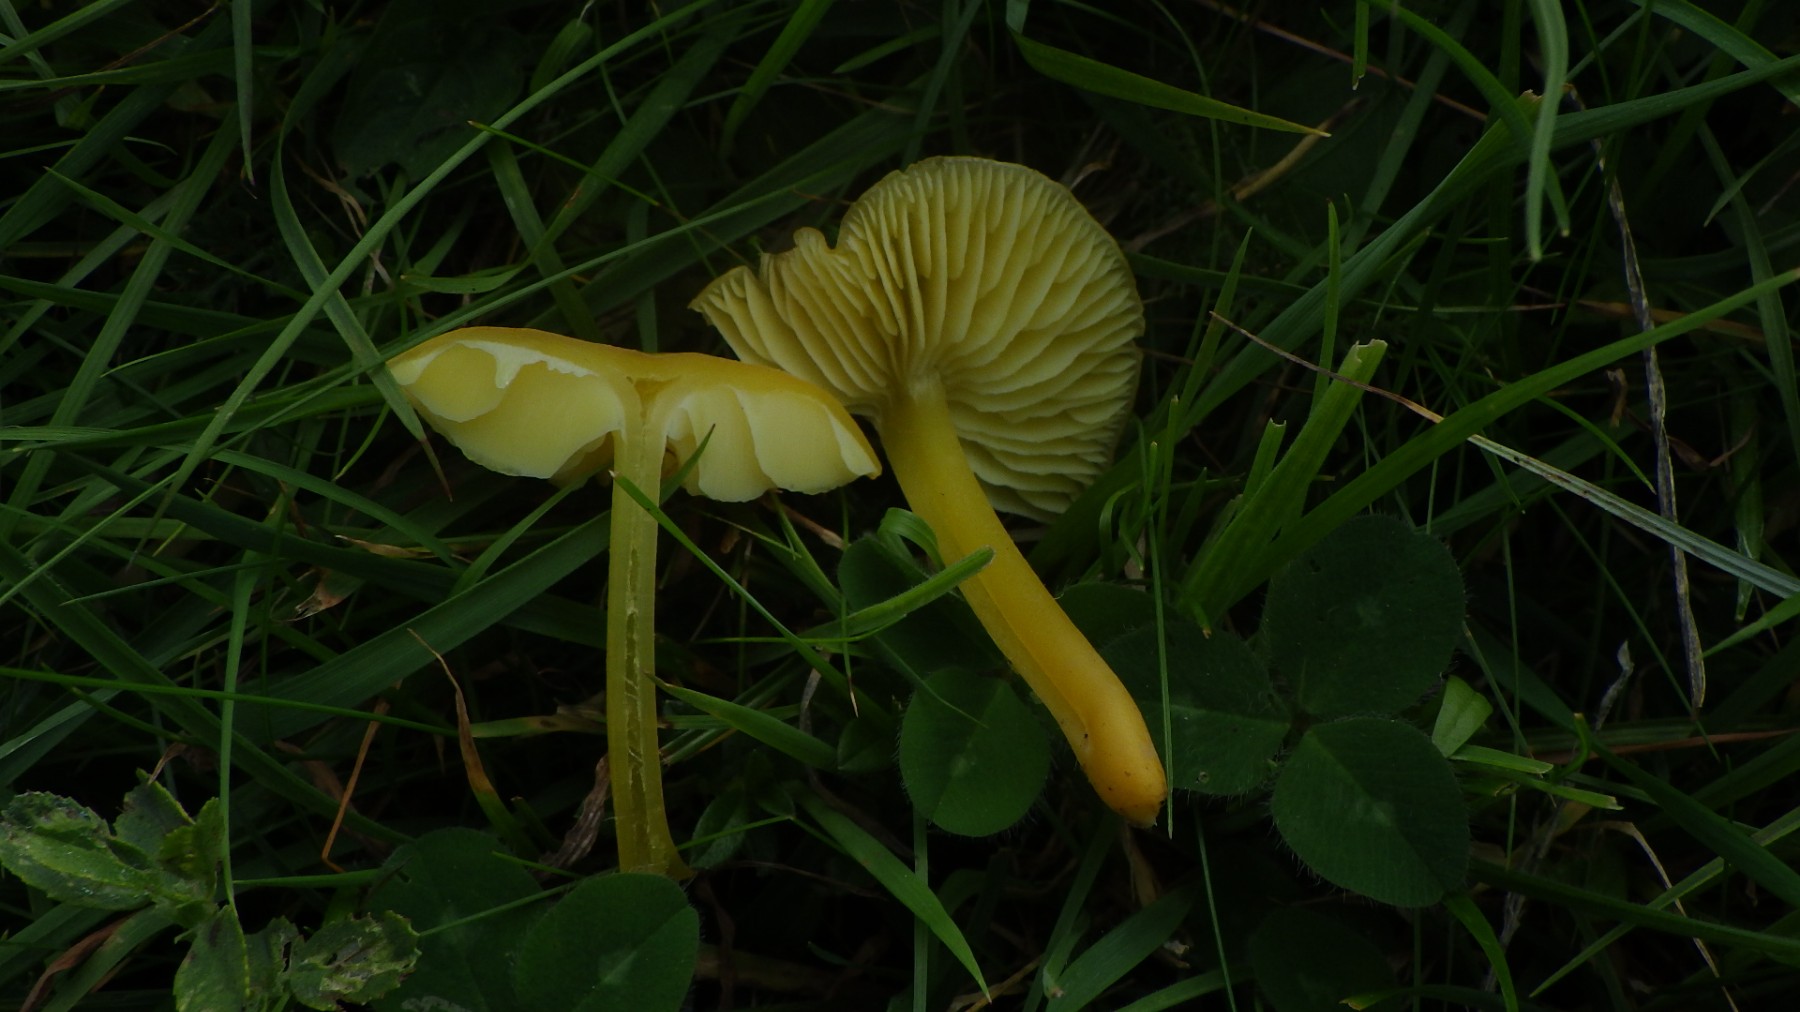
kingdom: Fungi
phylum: Basidiomycota
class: Agaricomycetes
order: Agaricales
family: Hygrophoraceae
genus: Hygrocybe
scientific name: Hygrocybe chlorophana
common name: gul vokshat
